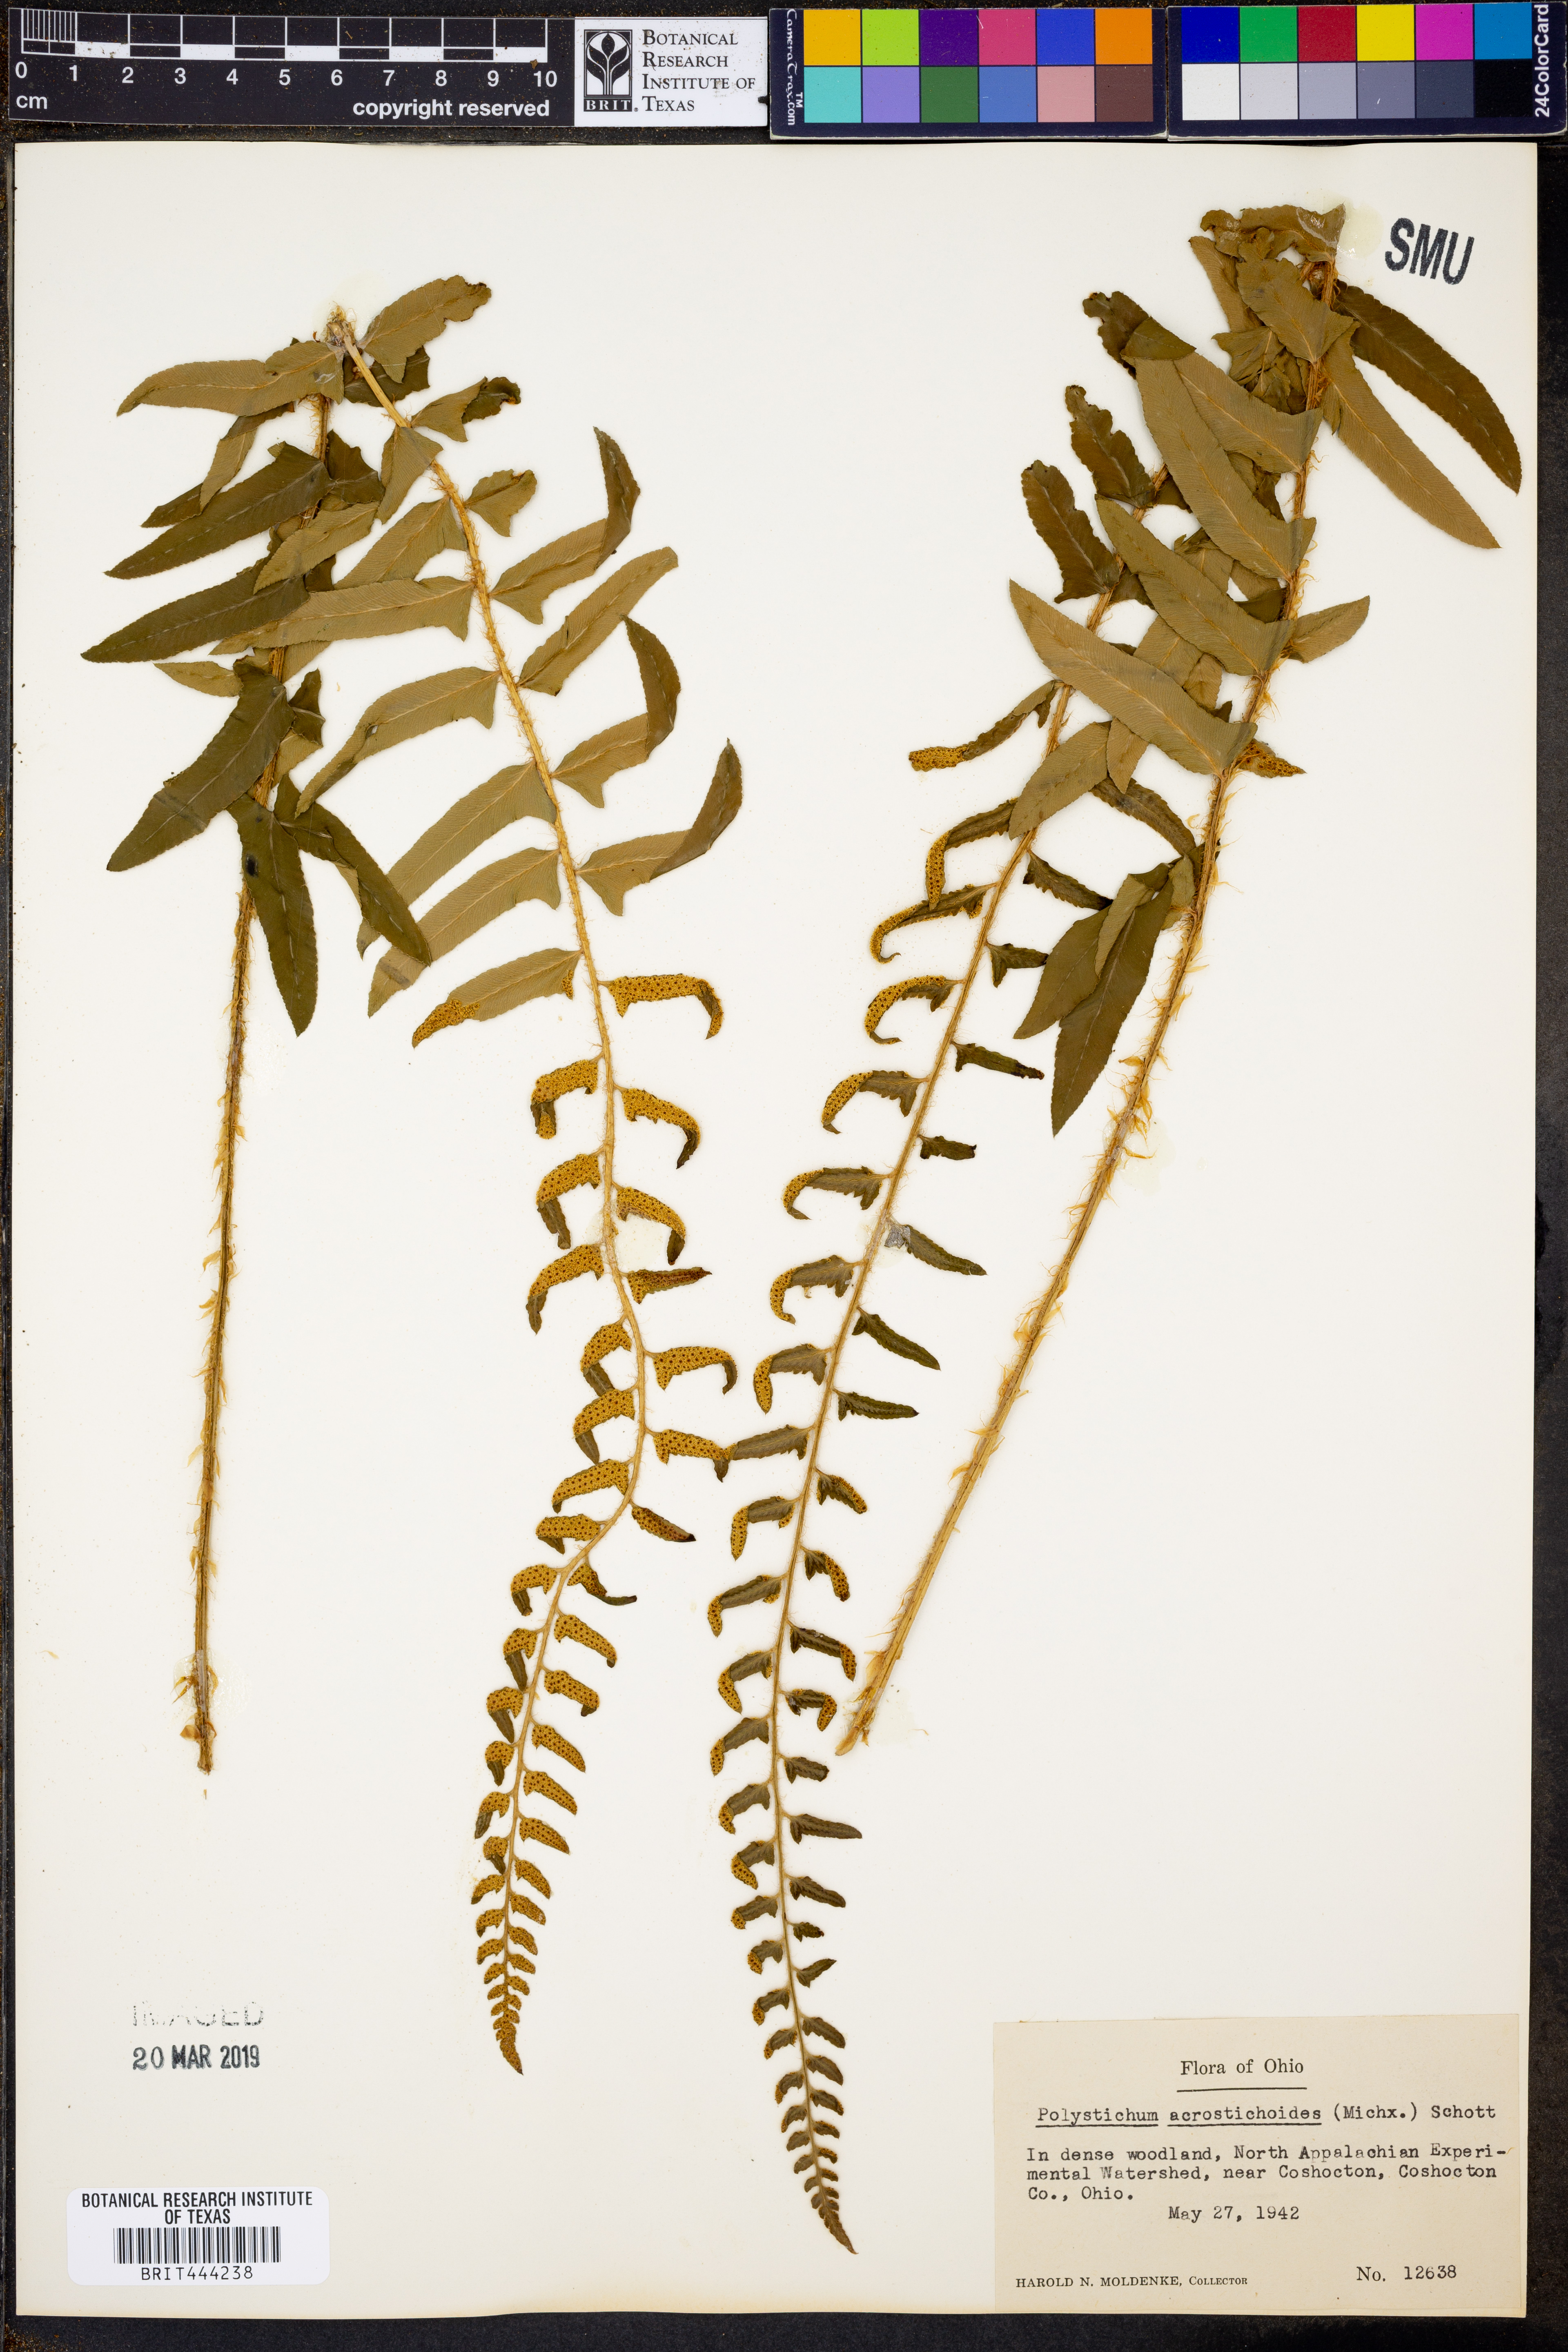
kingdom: Plantae
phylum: Tracheophyta
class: Polypodiopsida
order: Polypodiales
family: Dryopteridaceae
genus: Polystichum
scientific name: Polystichum acrostichoides
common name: Christmas fern
